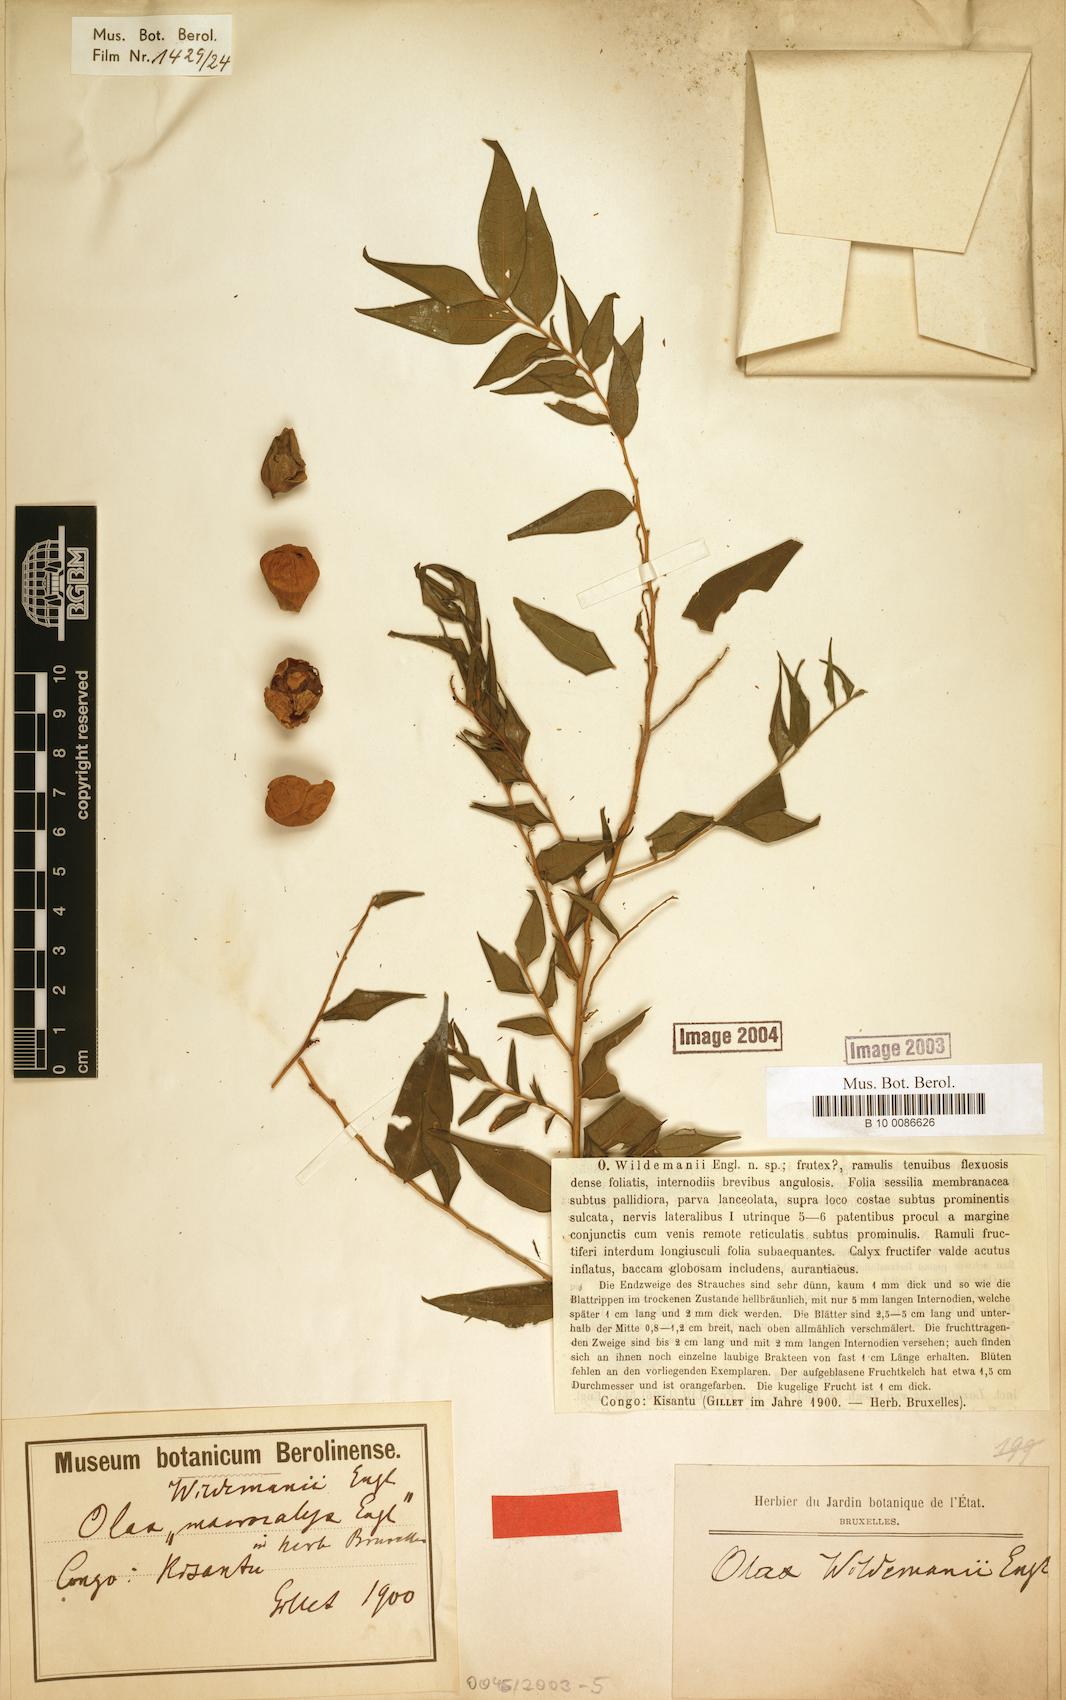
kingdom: Plantae
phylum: Tracheophyta
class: Magnoliopsida
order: Santalales
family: Olacaceae
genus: Olax
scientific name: Olax wildemanii
